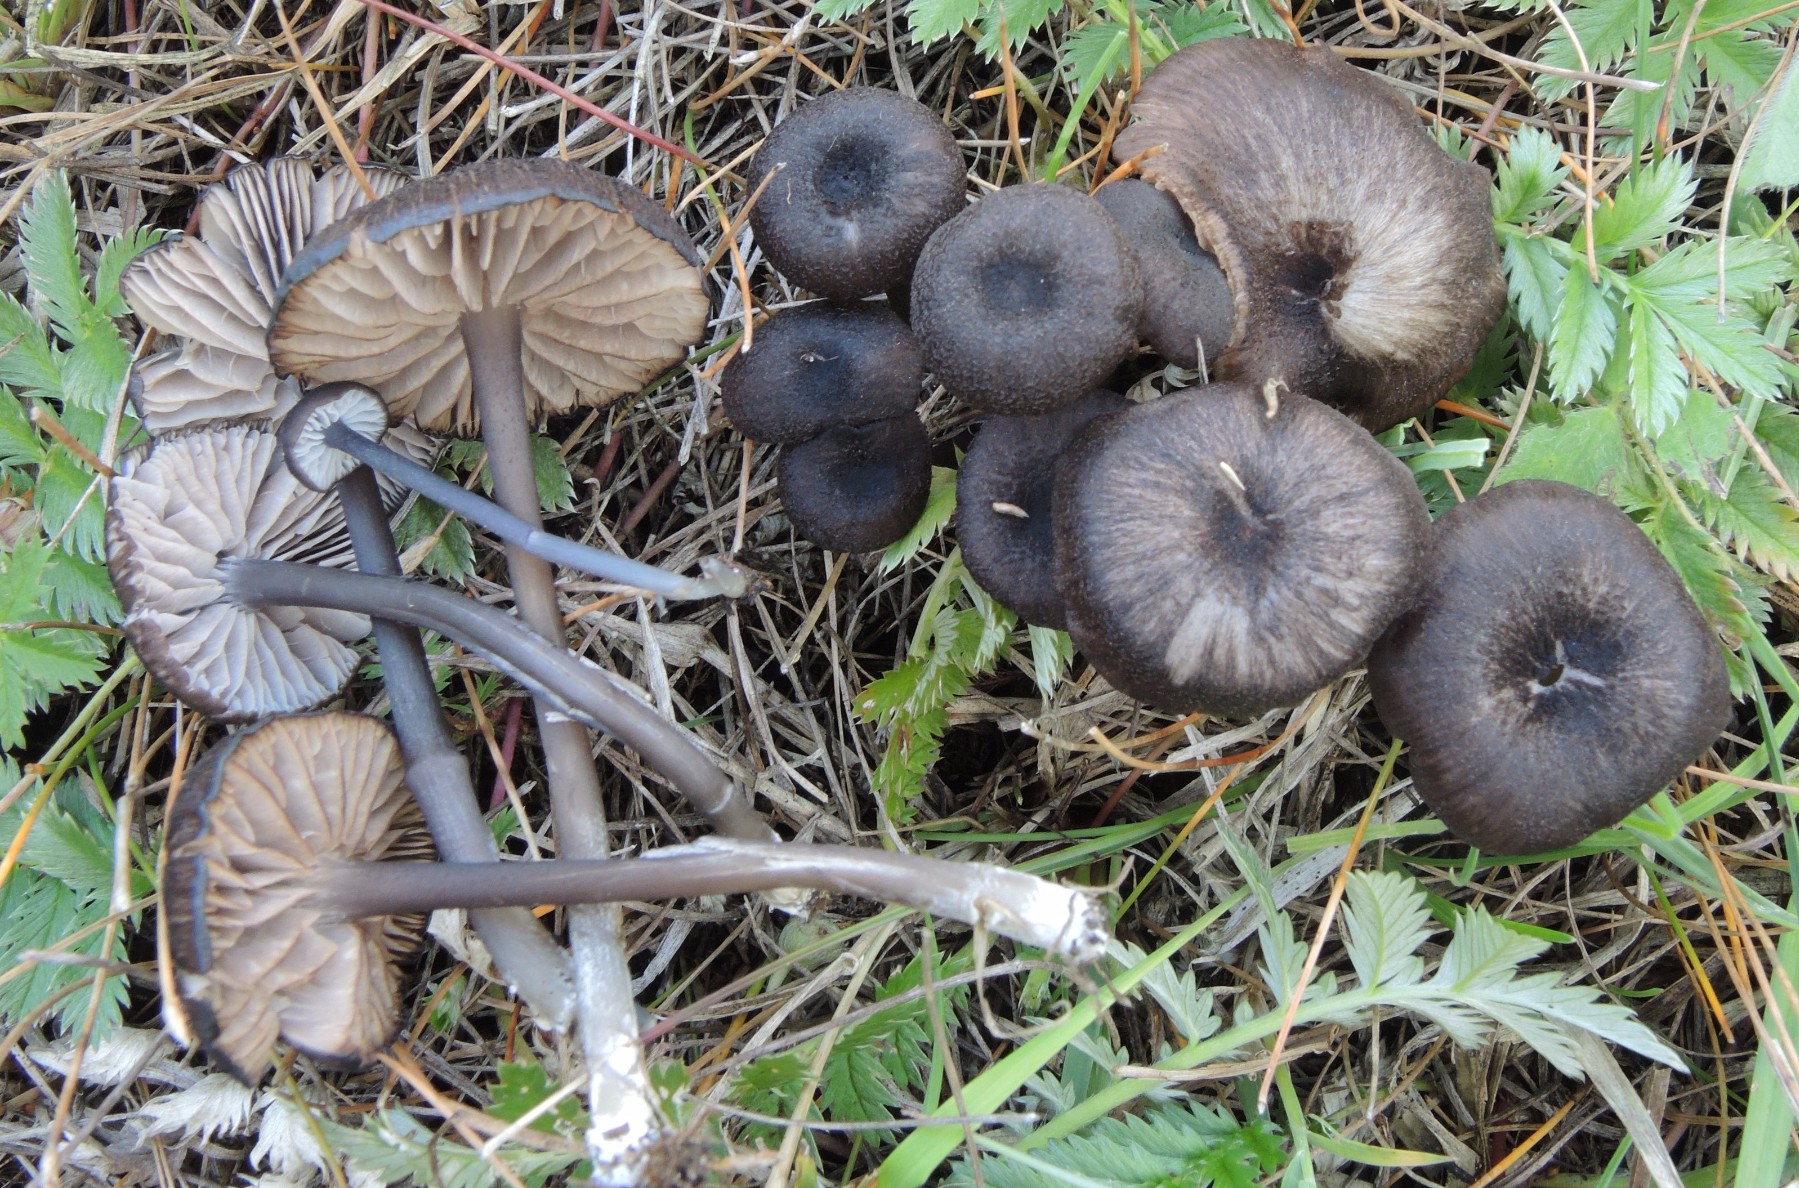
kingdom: Fungi
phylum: Basidiomycota
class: Agaricomycetes
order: Agaricales
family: Entolomataceae
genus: Entoloma
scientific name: Entoloma chalybeum
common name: blåbladet rødblad
